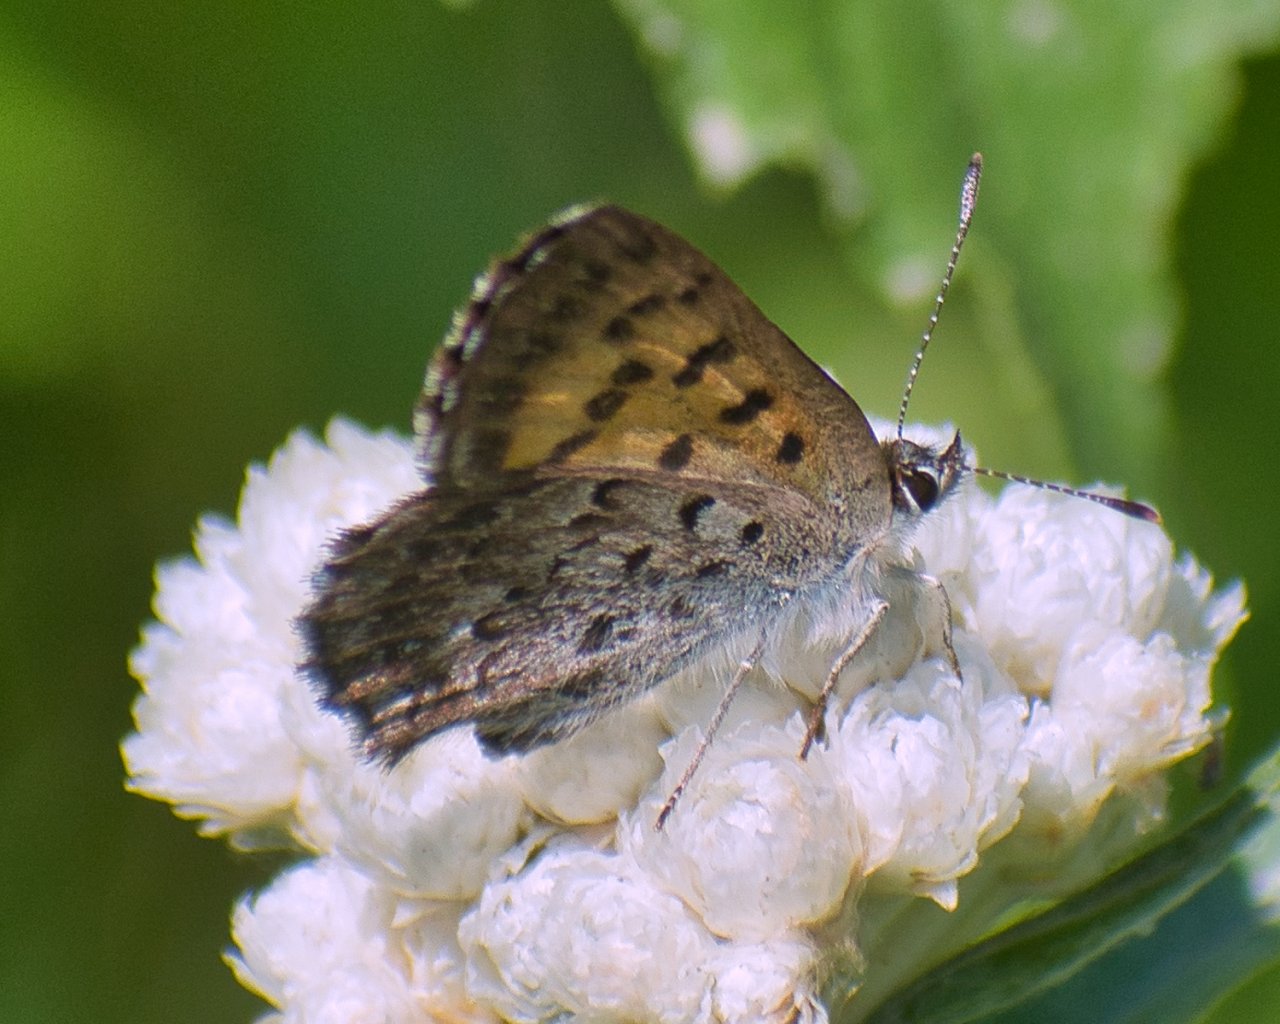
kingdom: Animalia
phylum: Arthropoda
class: Insecta
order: Lepidoptera
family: Lycaenidae
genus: Lycaena
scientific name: Lycaena mariposa
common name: Mariposa Copper
